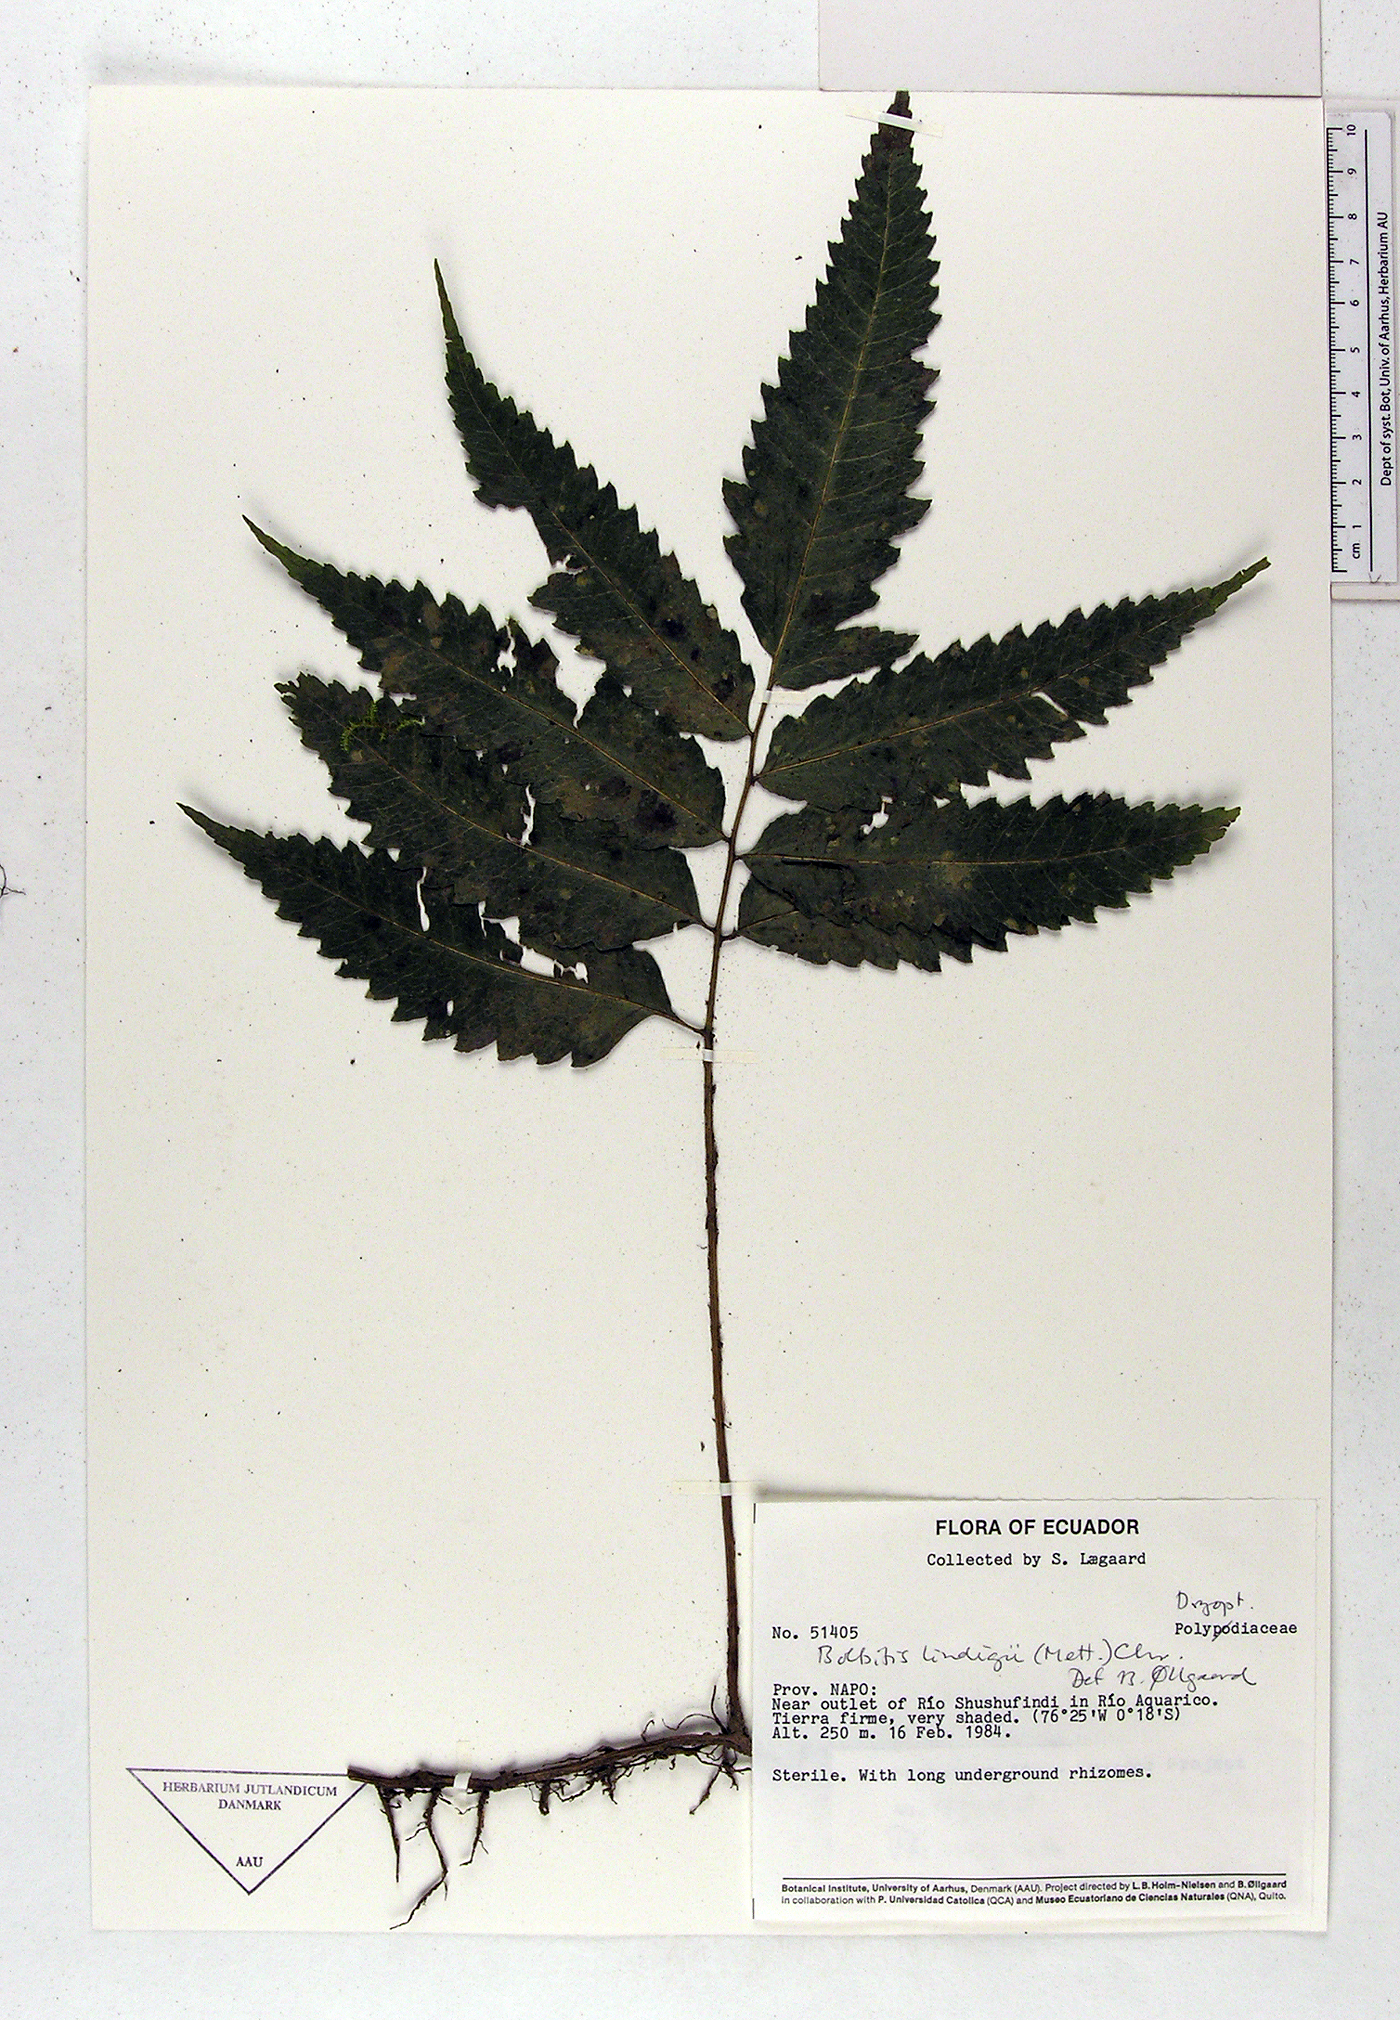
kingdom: Plantae
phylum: Tracheophyta
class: Polypodiopsida
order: Polypodiales
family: Polypodiaceae
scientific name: Polypodiaceae
